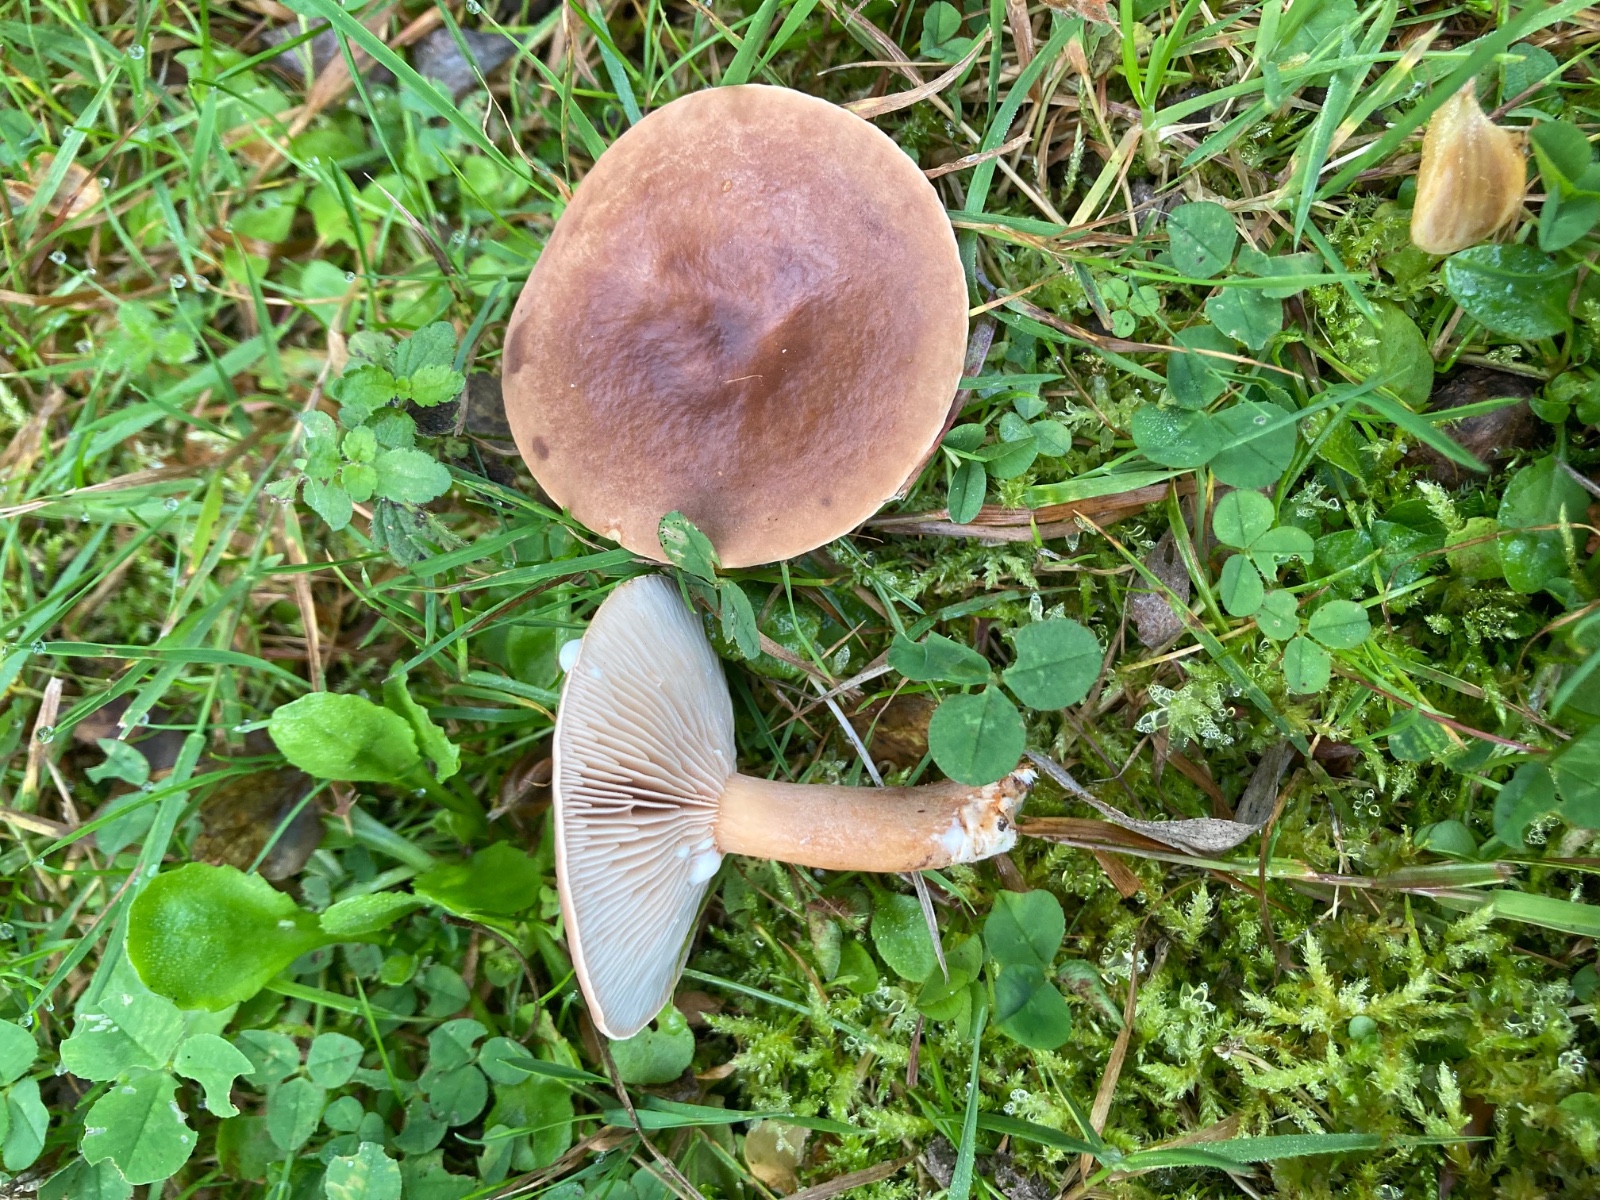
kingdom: Fungi
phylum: Basidiomycota
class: Agaricomycetes
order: Russulales
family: Russulaceae
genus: Lactarius
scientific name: Lactarius subdulcis
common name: sødlig mælkehat
